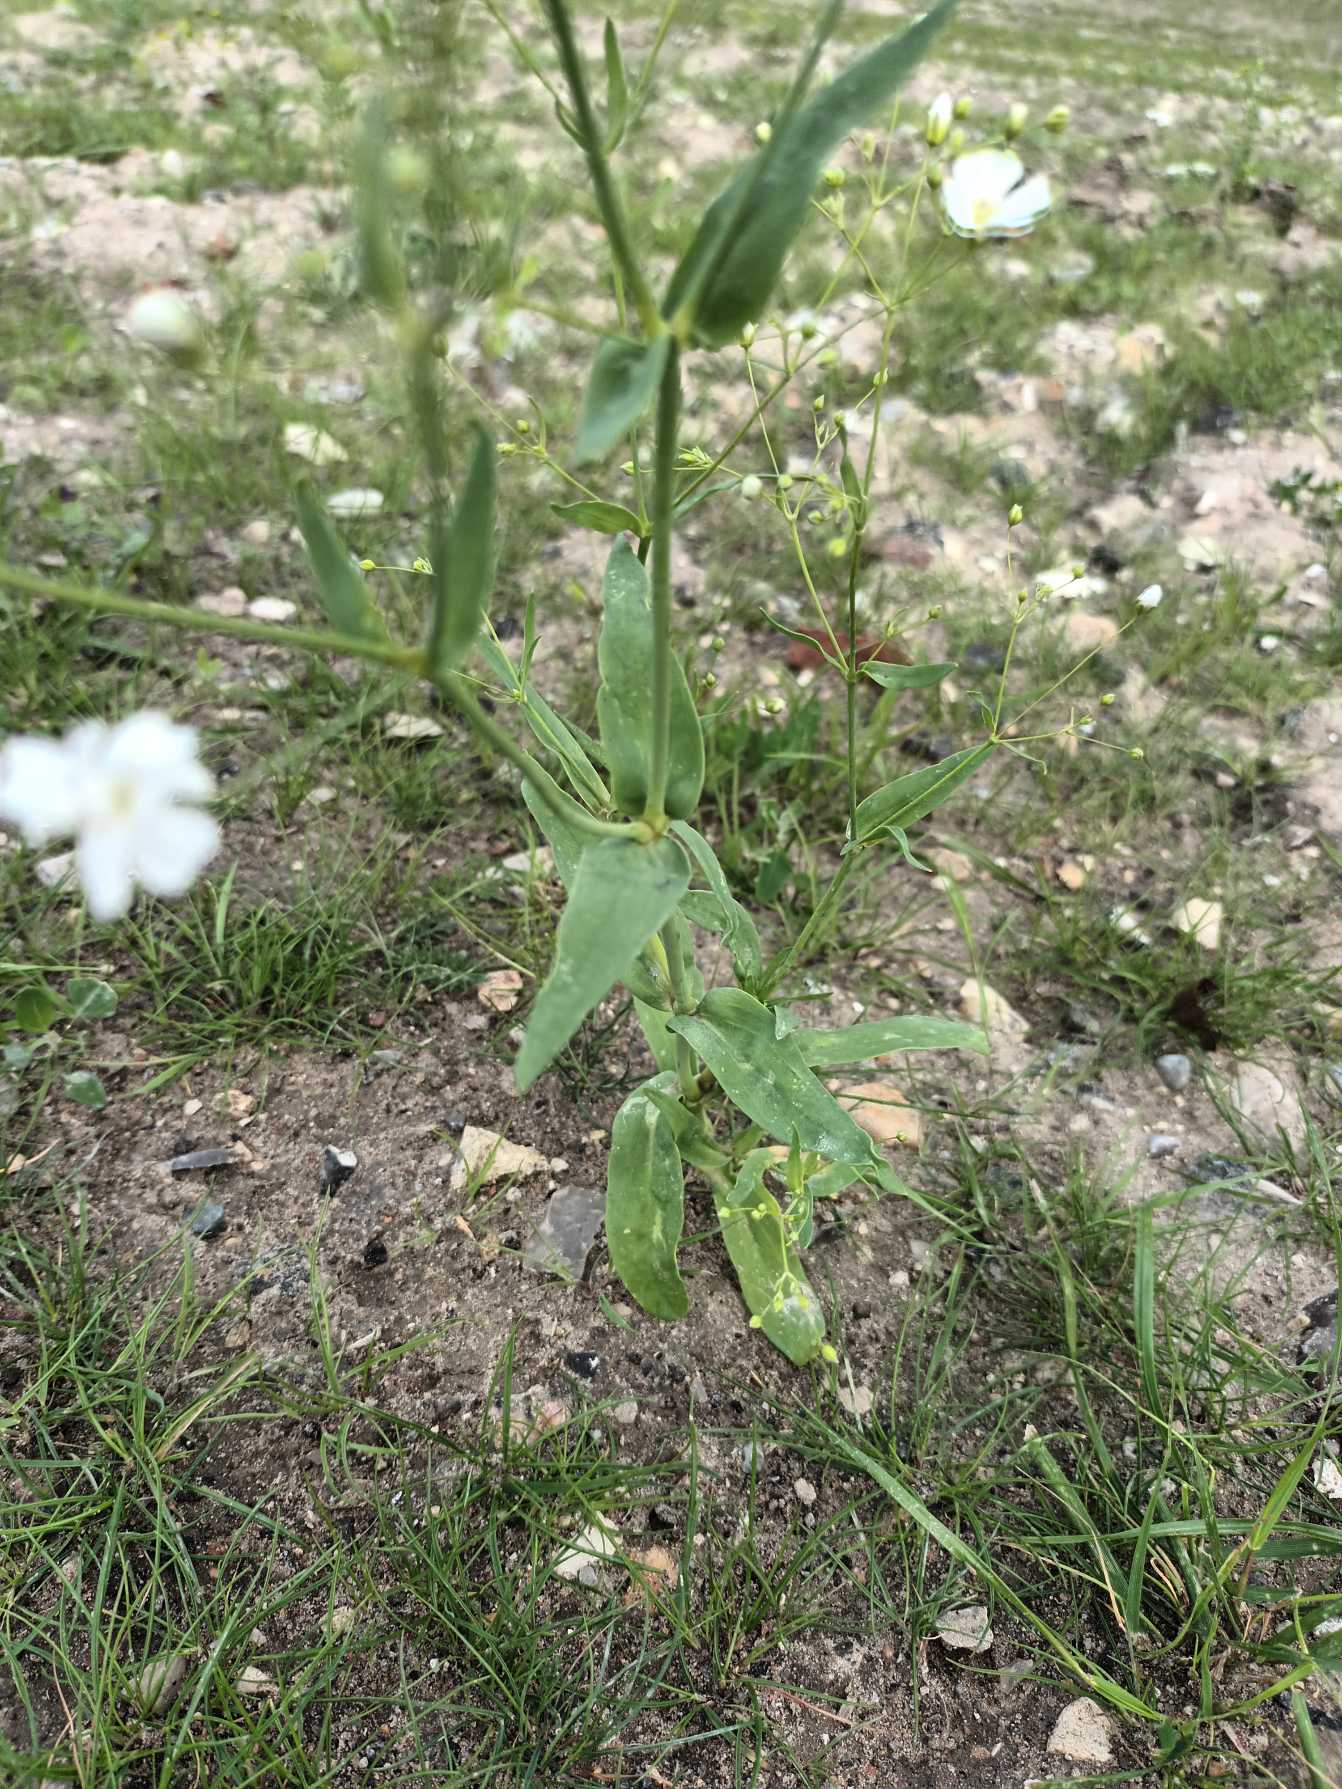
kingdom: Plantae
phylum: Tracheophyta
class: Magnoliopsida
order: Caryophyllales
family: Caryophyllaceae
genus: Gypsophila
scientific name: Gypsophila elegans
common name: Enårig brudeslør
